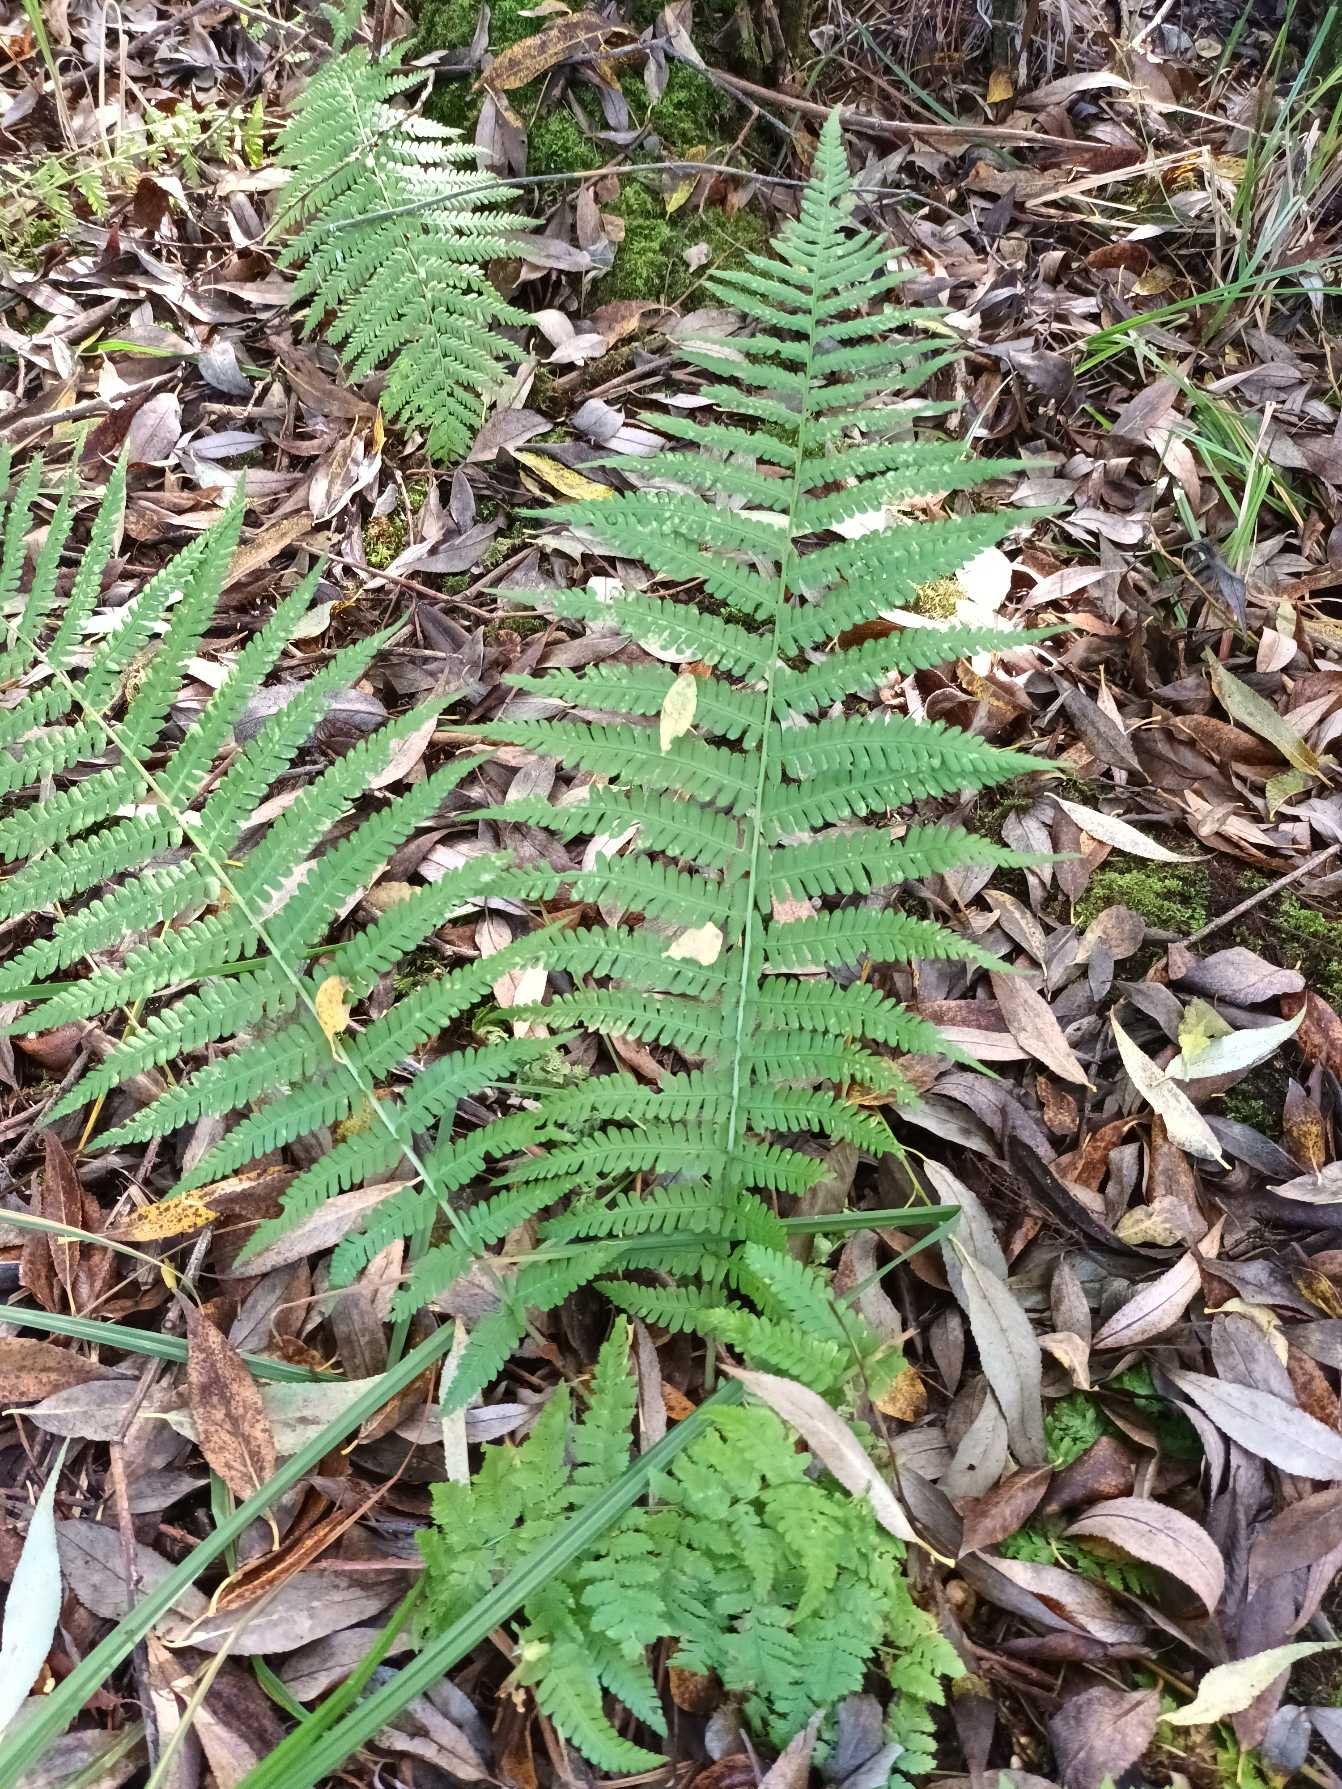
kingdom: Plantae
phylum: Tracheophyta
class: Polypodiopsida
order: Polypodiales
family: Dryopteridaceae
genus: Dryopteris
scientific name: Dryopteris filix-mas
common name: Almindelig mangeløv
